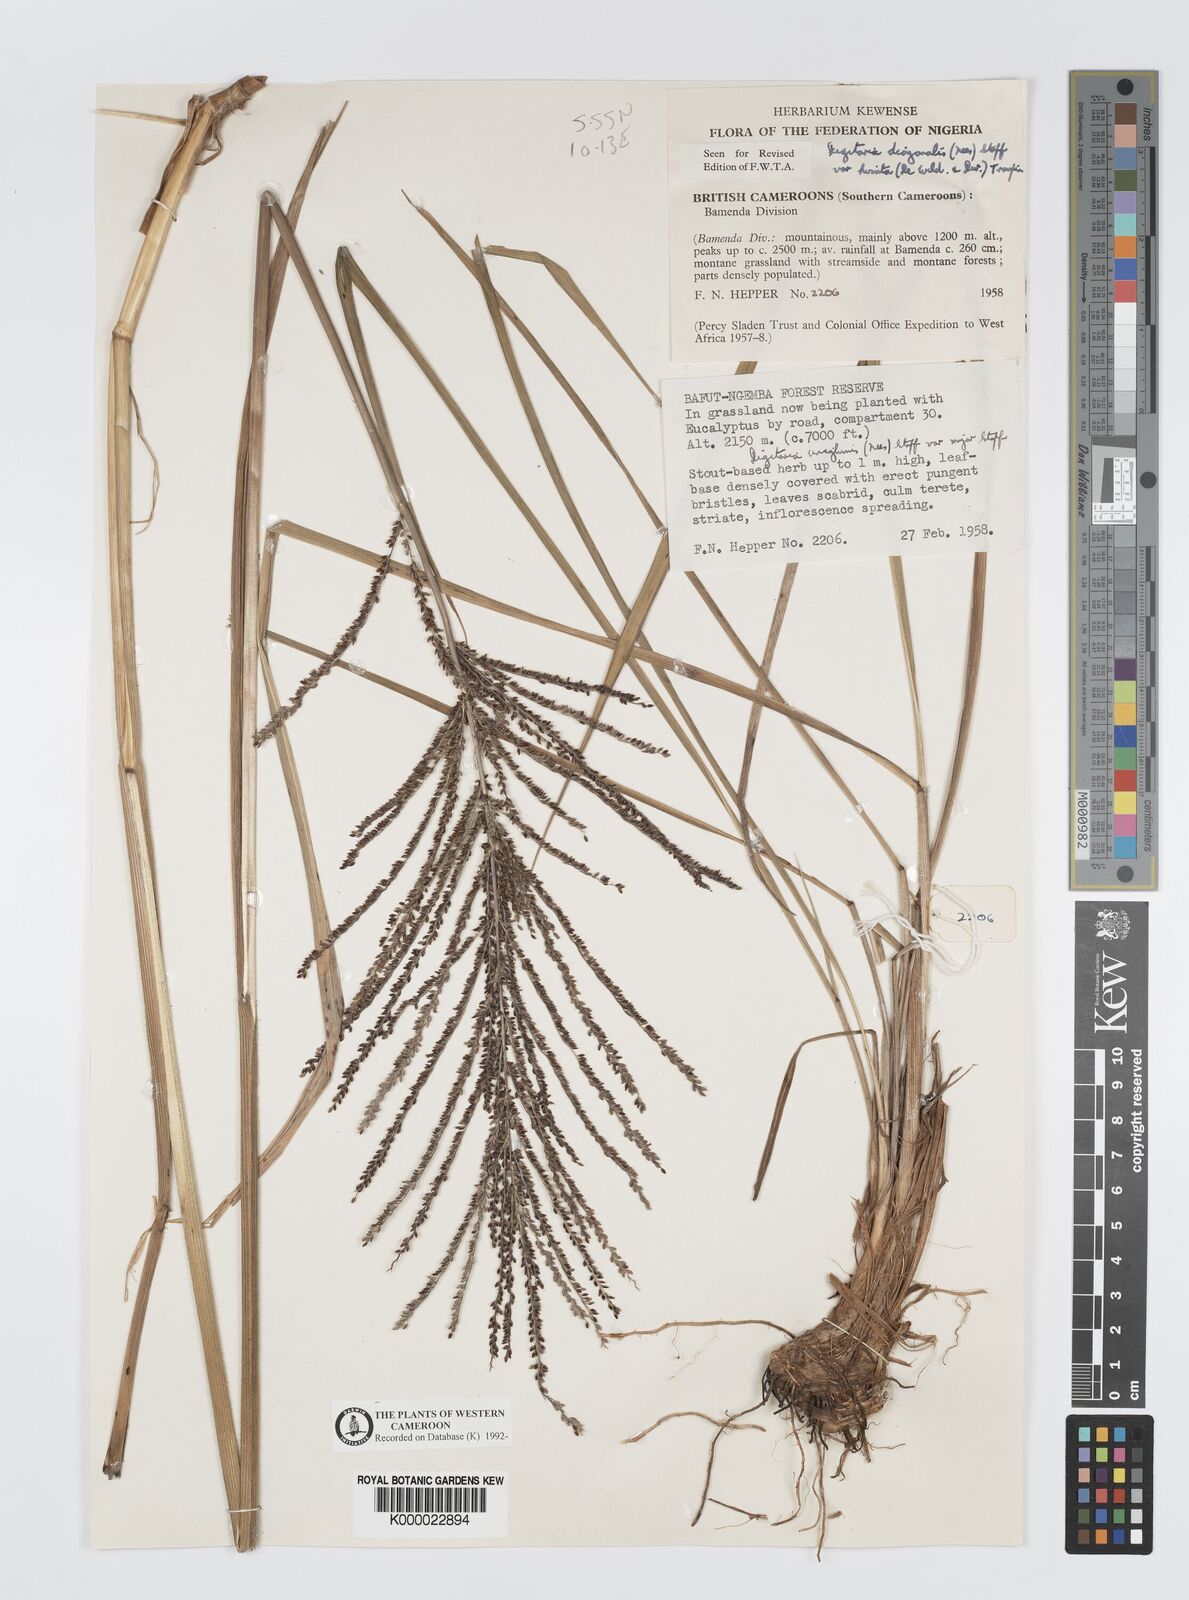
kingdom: Plantae
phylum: Tracheophyta
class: Liliopsida
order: Poales
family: Poaceae
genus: Digitaria
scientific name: Digitaria diagonalis
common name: Brown-seed finger grass
